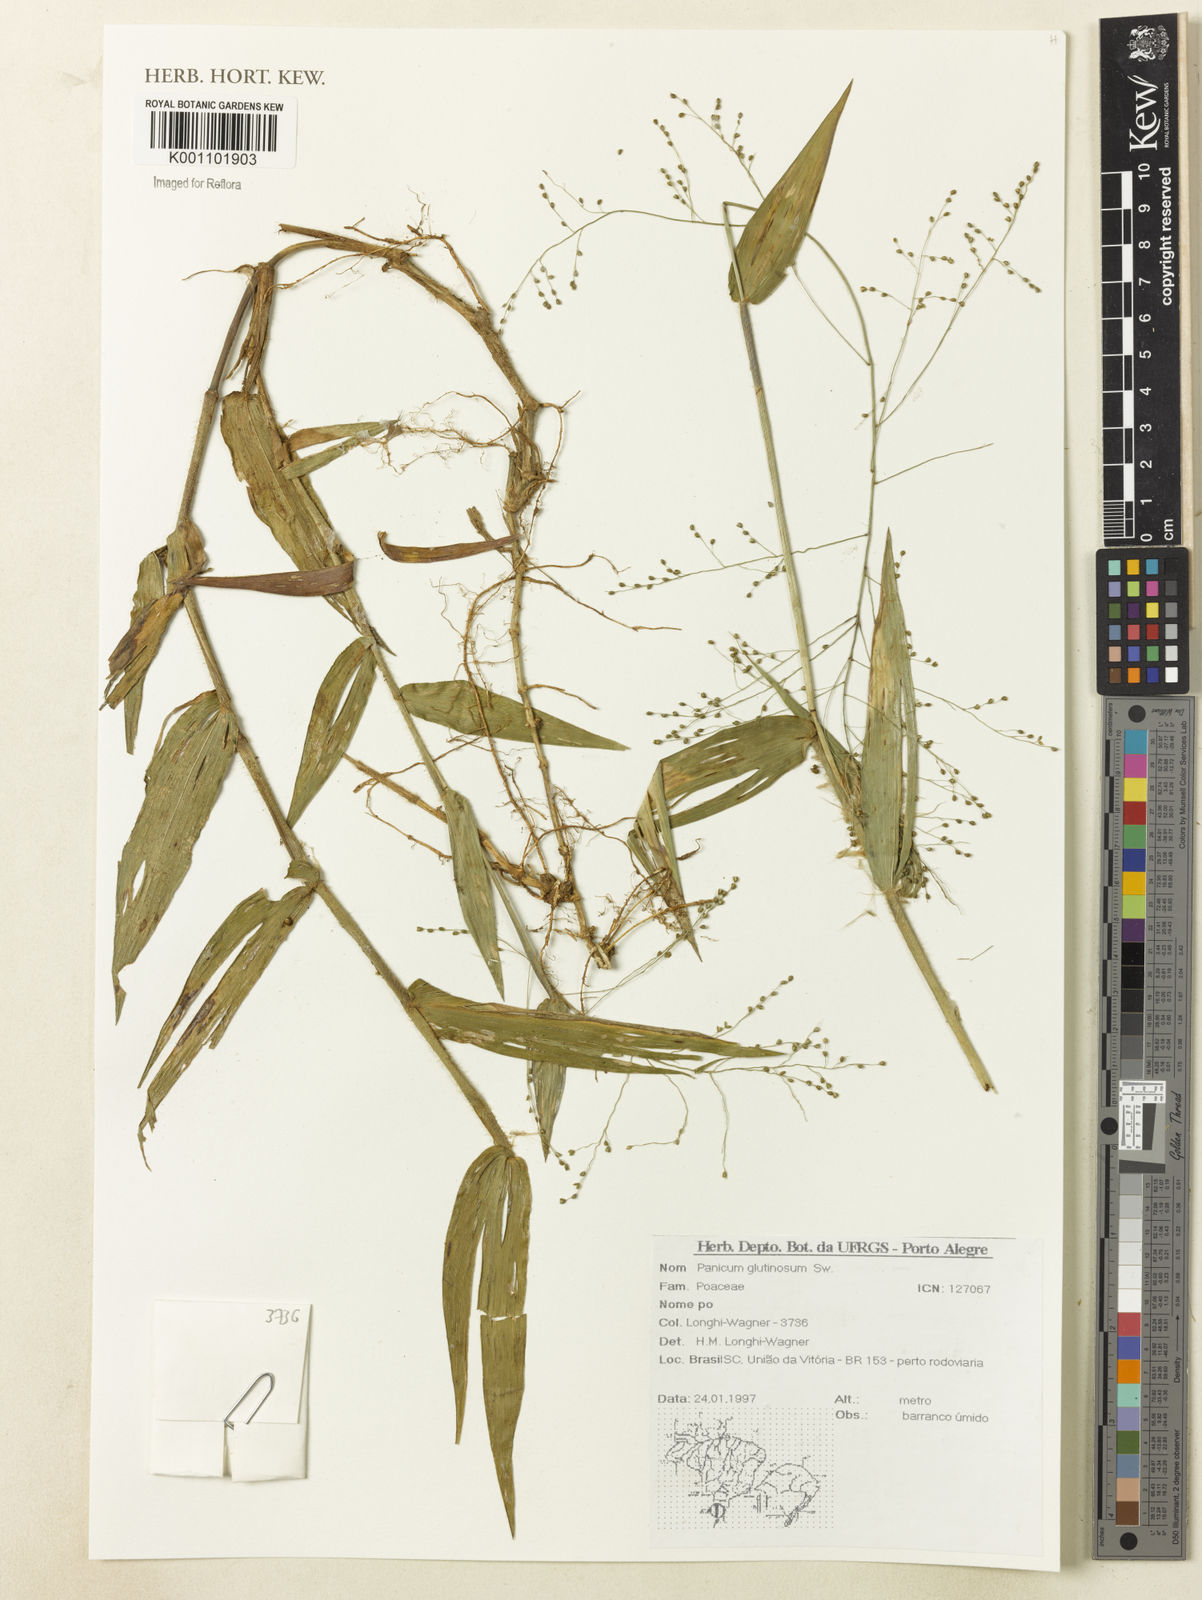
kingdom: Plantae
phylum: Tracheophyta
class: Liliopsida
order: Poales
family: Poaceae
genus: Homolepis
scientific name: Homolepis glutinosa
